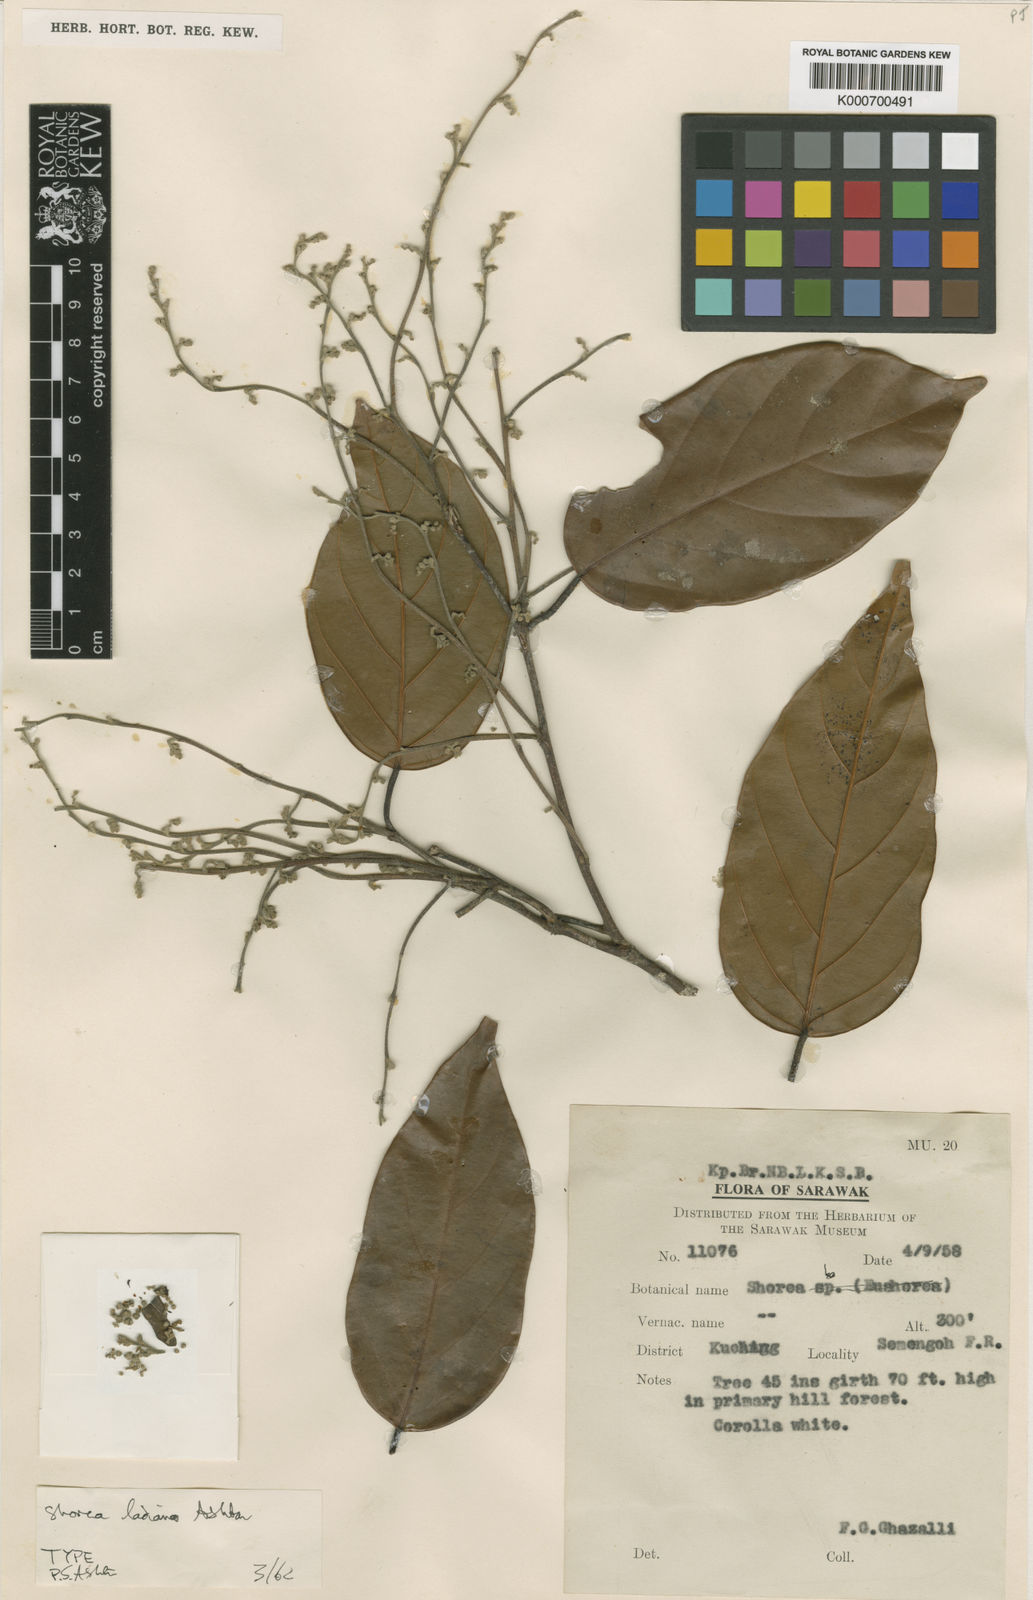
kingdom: Plantae
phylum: Tracheophyta
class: Magnoliopsida
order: Malvales
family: Dipterocarpaceae
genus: Shorea
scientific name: Shorea ladiana
